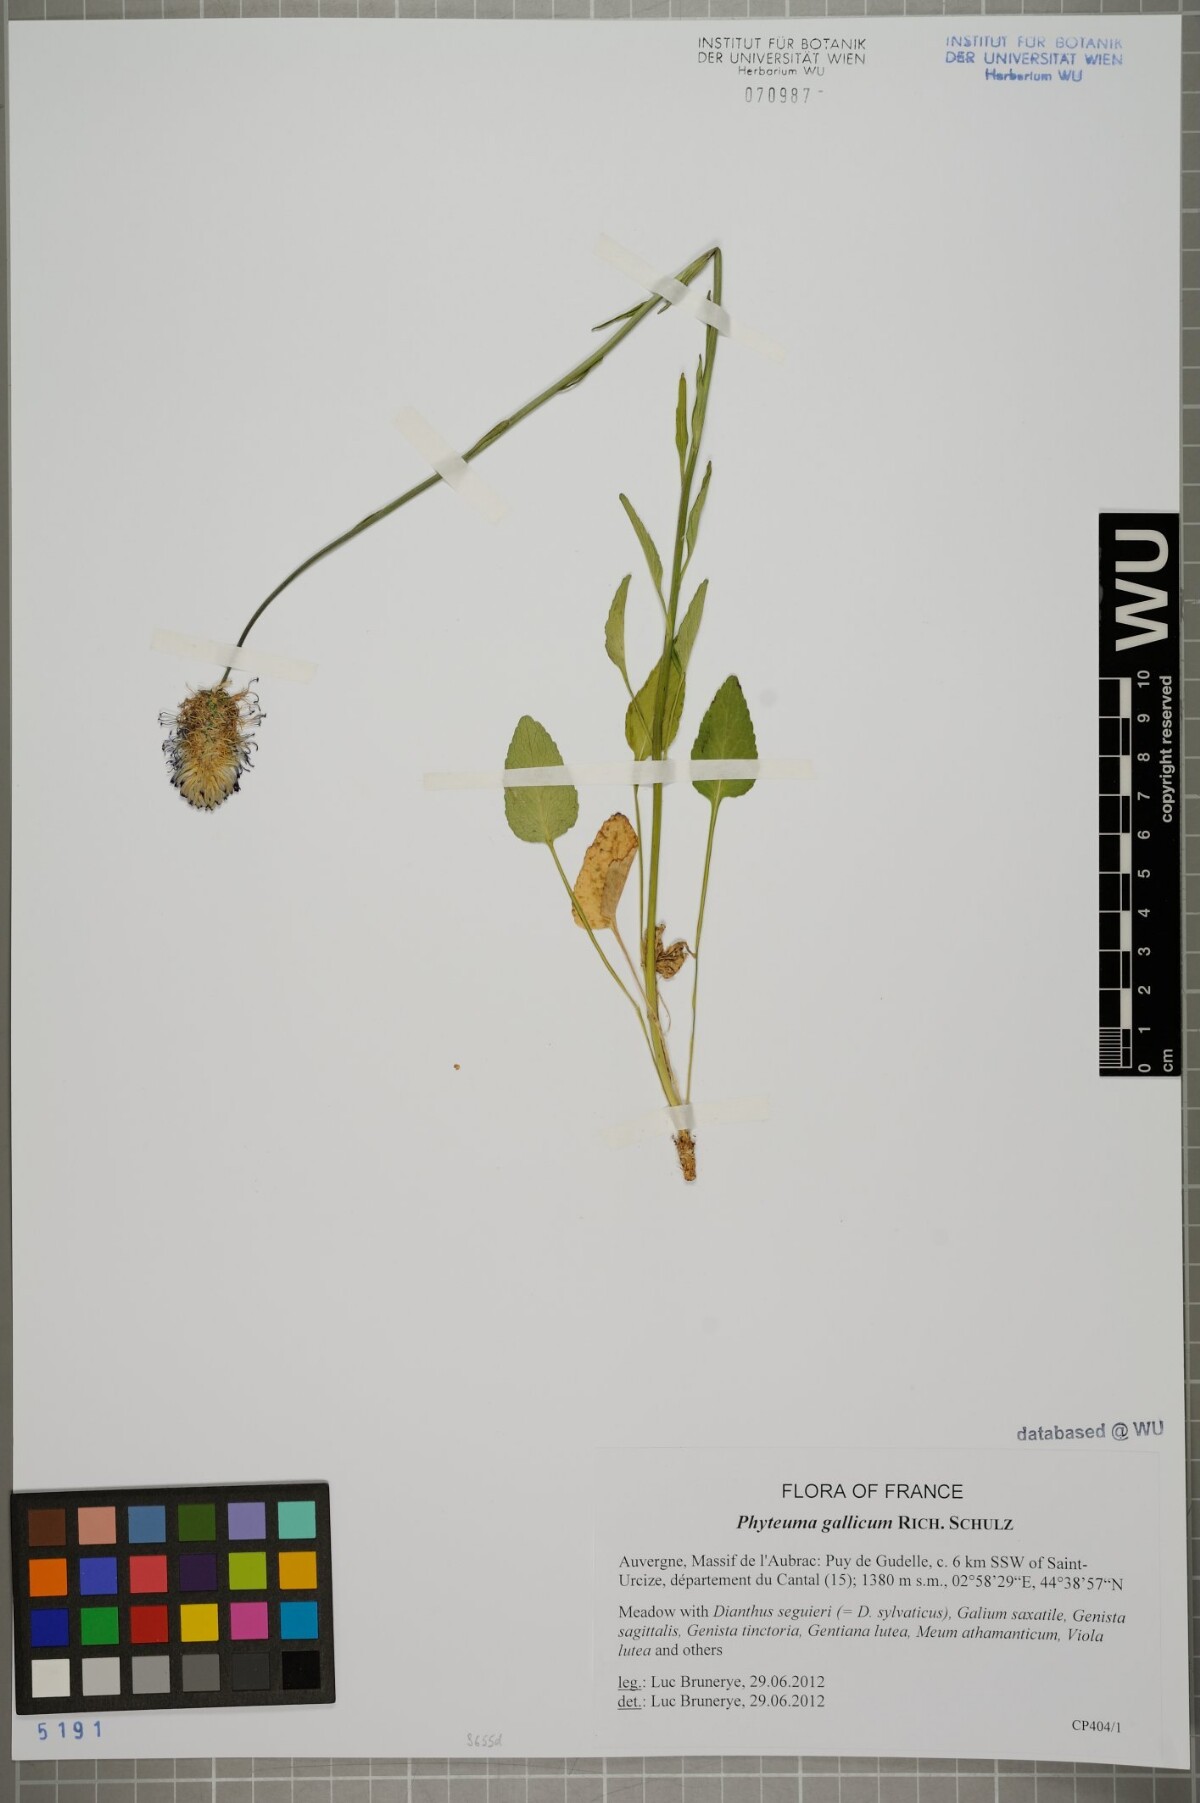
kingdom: Plantae
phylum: Tracheophyta
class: Magnoliopsida
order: Asterales
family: Campanulaceae
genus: Phyteuma
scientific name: Phyteuma gallicum
